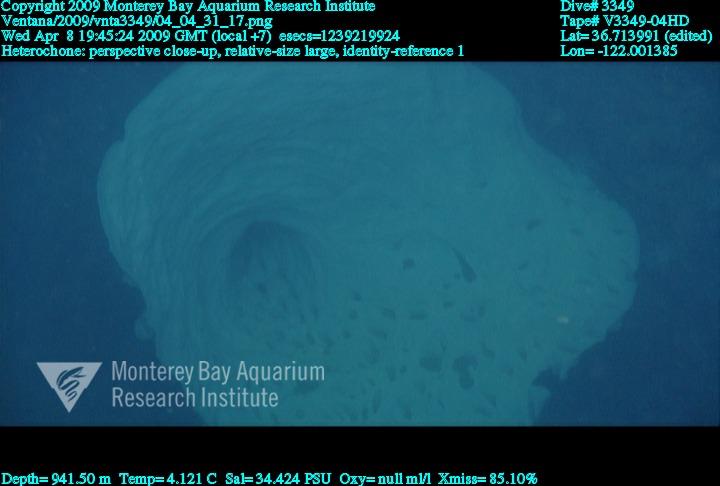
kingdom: Animalia
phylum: Porifera
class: Hexactinellida
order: Sceptrulophora
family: Aphrocallistidae
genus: Heterochone
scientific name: Heterochone
